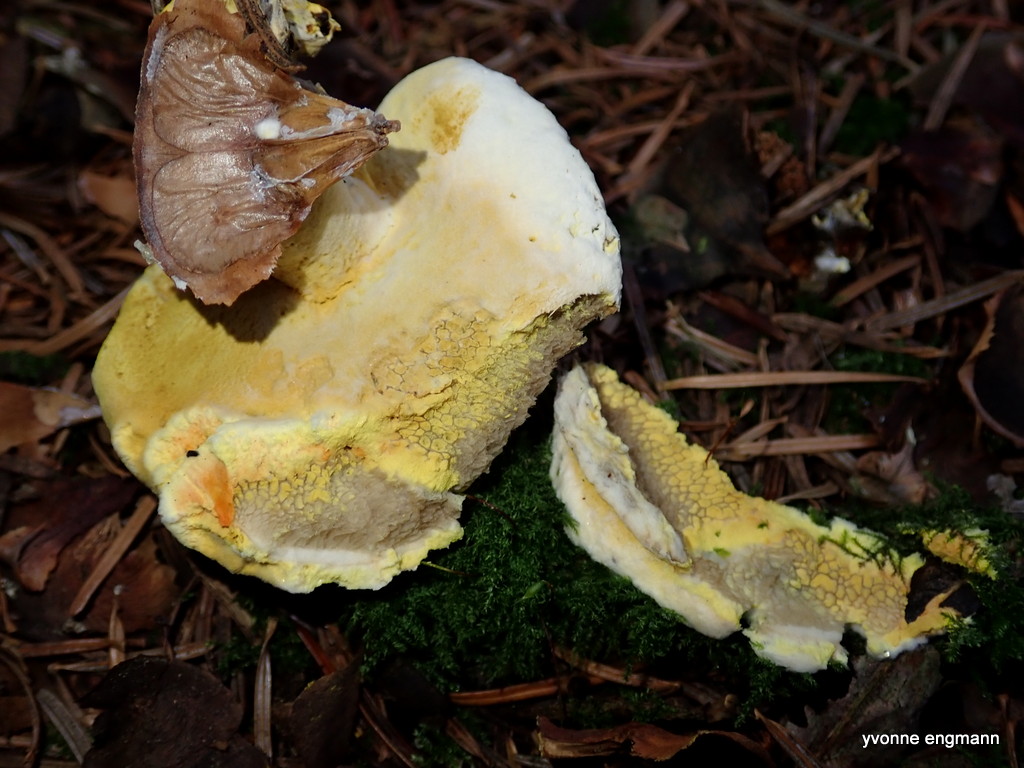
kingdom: Fungi
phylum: Ascomycota
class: Sordariomycetes
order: Hypocreales
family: Hypocreaceae
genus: Hypomyces
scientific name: Hypomyces
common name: snylteskorpe
